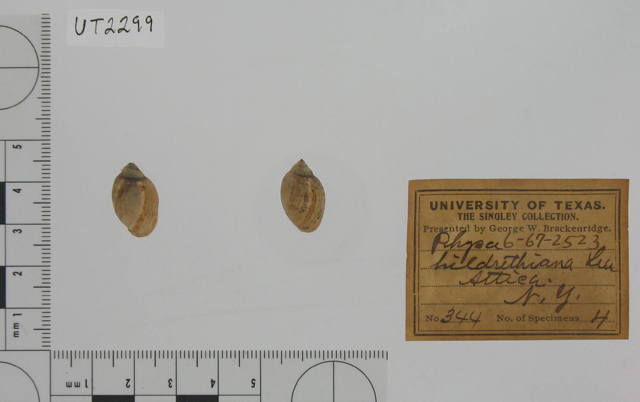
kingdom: Animalia
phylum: Mollusca
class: Gastropoda
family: Physidae
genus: Physella
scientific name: Physella gyrina
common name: Tadpole physa
